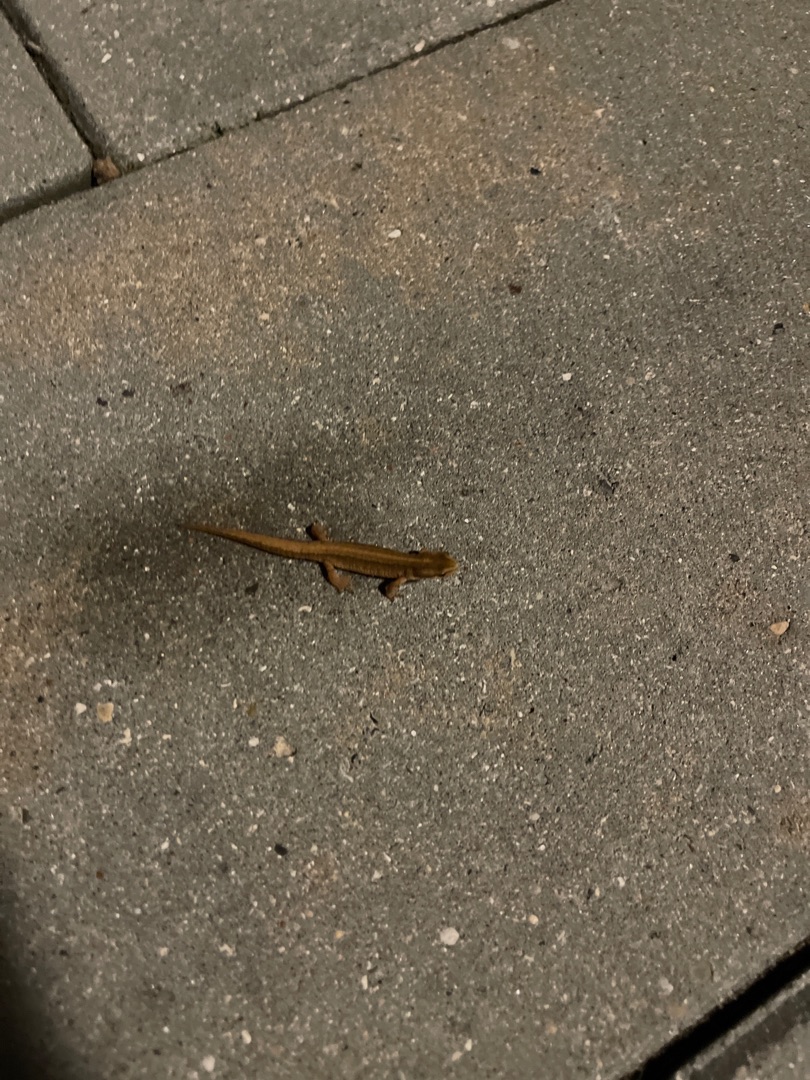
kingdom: Animalia
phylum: Chordata
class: Amphibia
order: Caudata
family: Salamandridae
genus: Lissotriton
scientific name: Lissotriton vulgaris
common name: Lille vandsalamander
